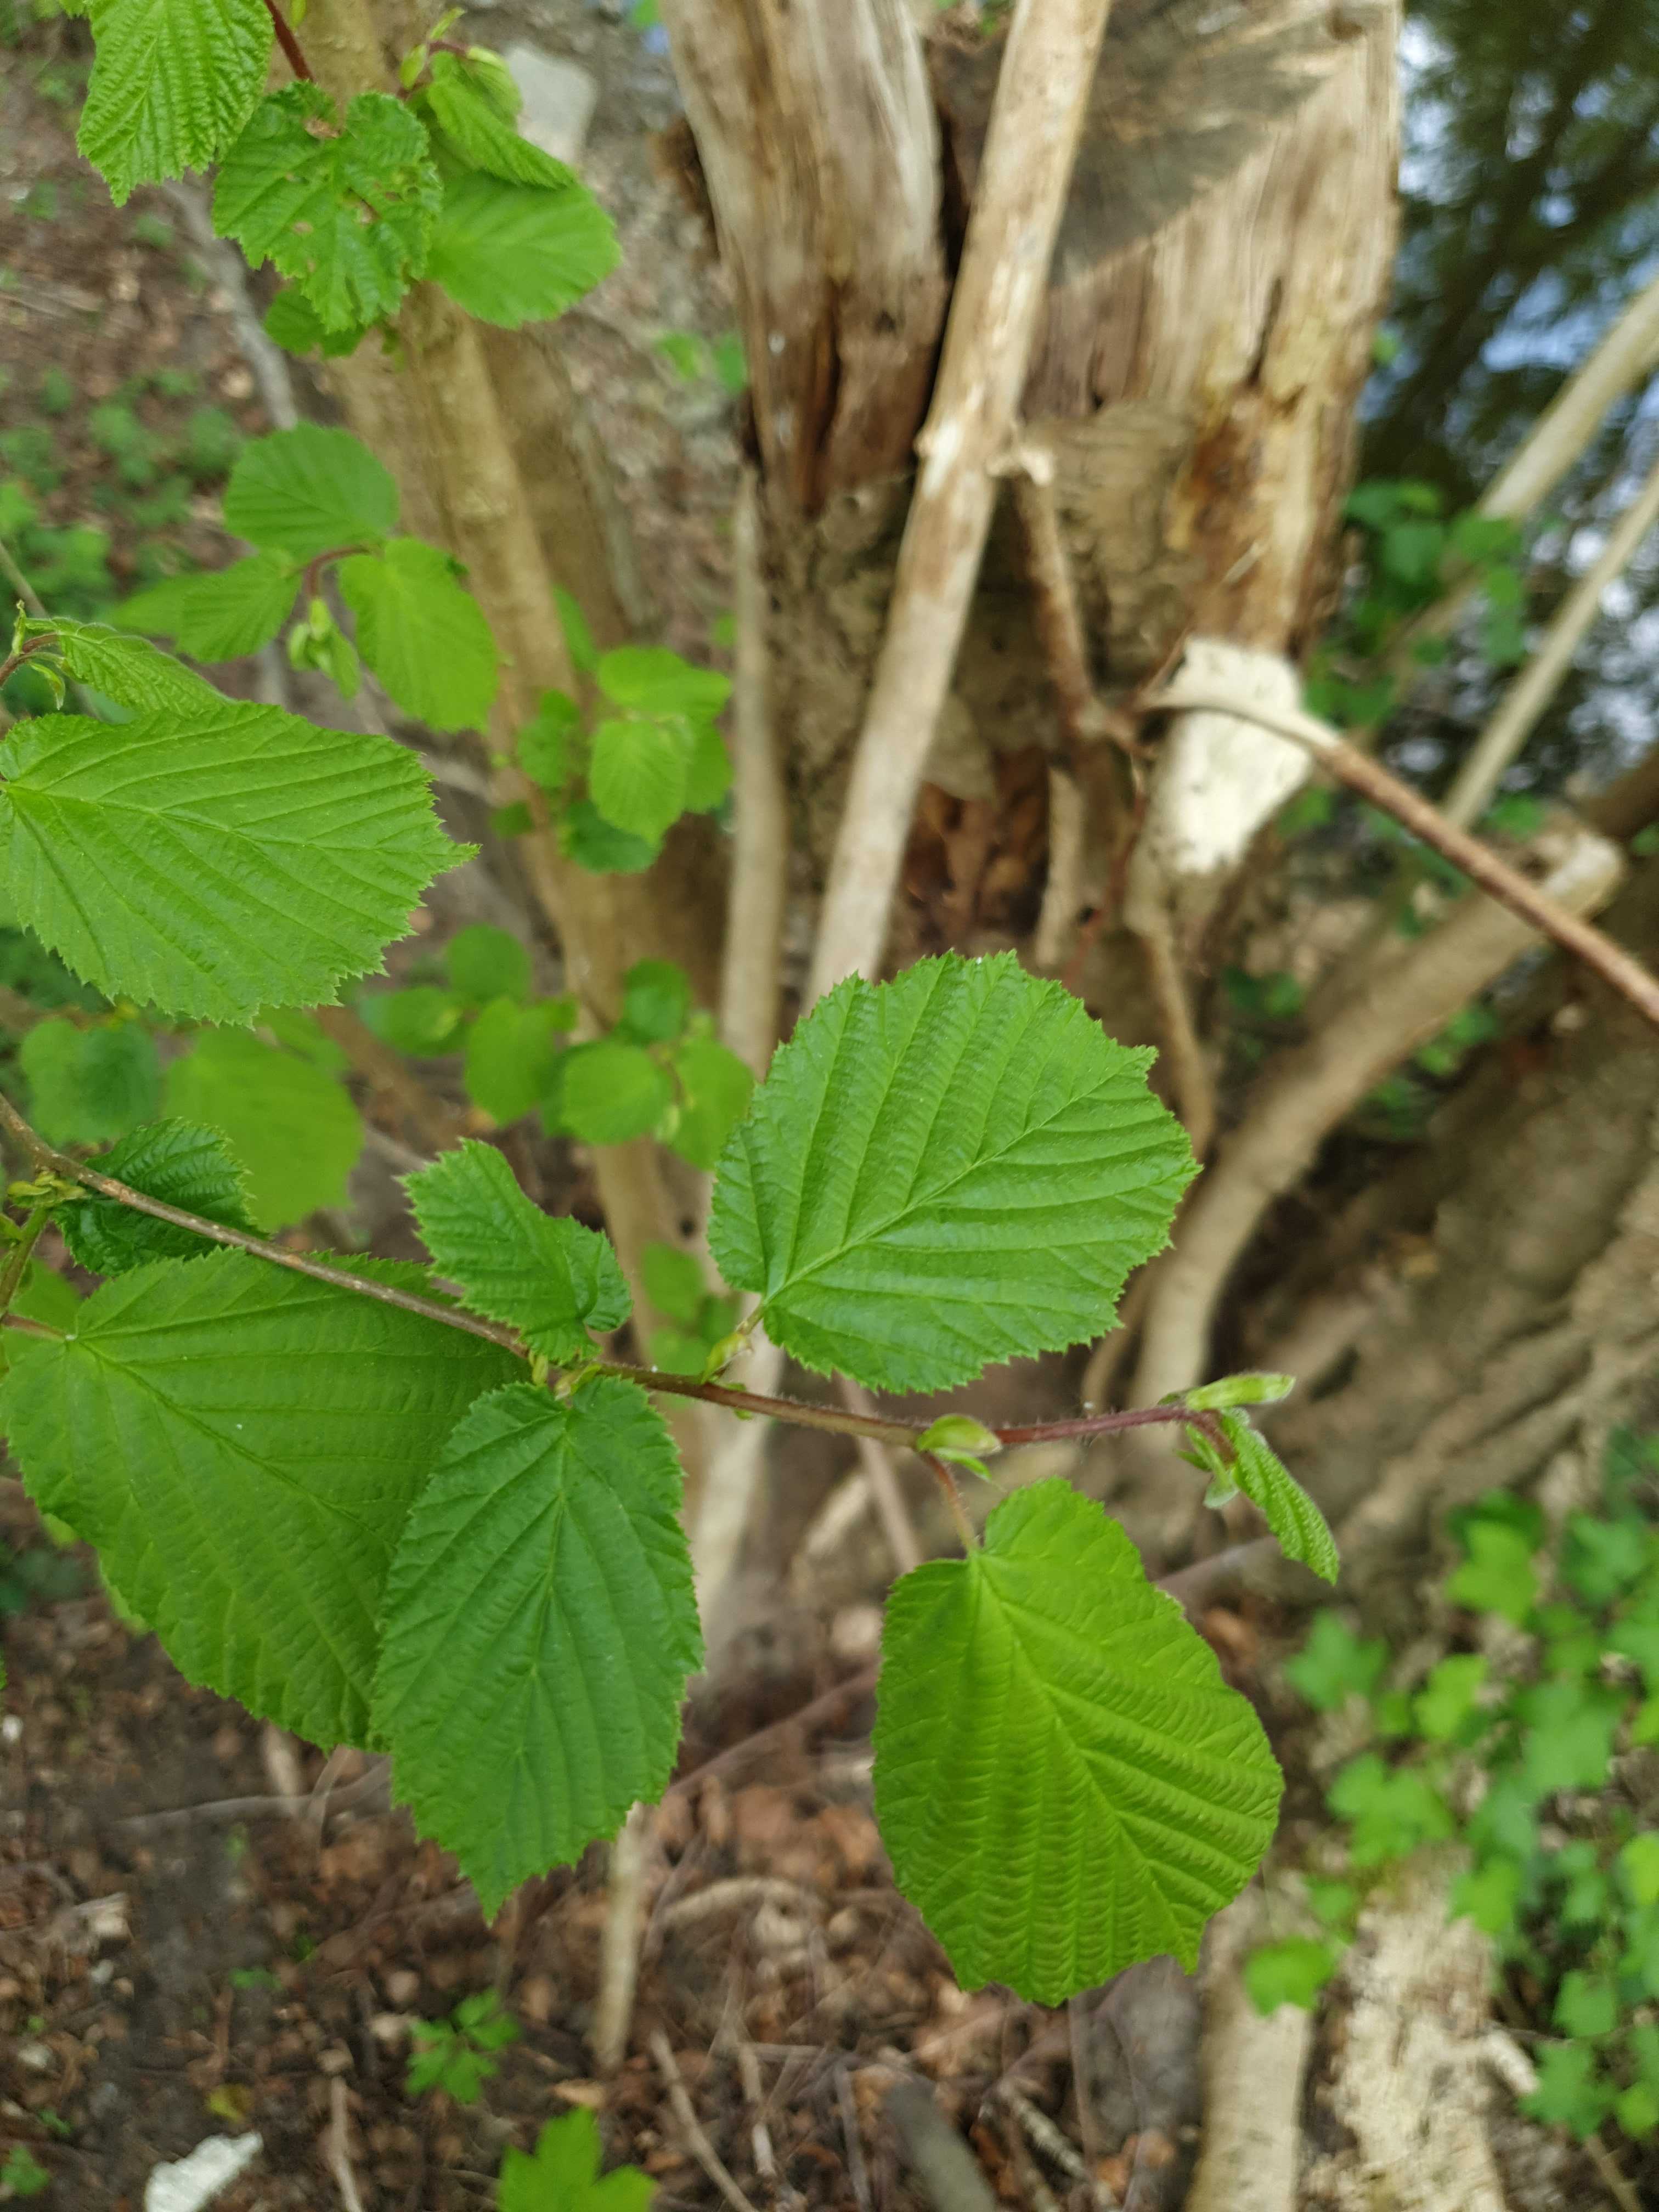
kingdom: Fungi
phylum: Basidiomycota
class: Agaricomycetes
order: Hymenochaetales
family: Hymenochaetaceae
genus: Fuscoporia
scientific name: Fuscoporia ferrea
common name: skorpe-ildporesvamp
